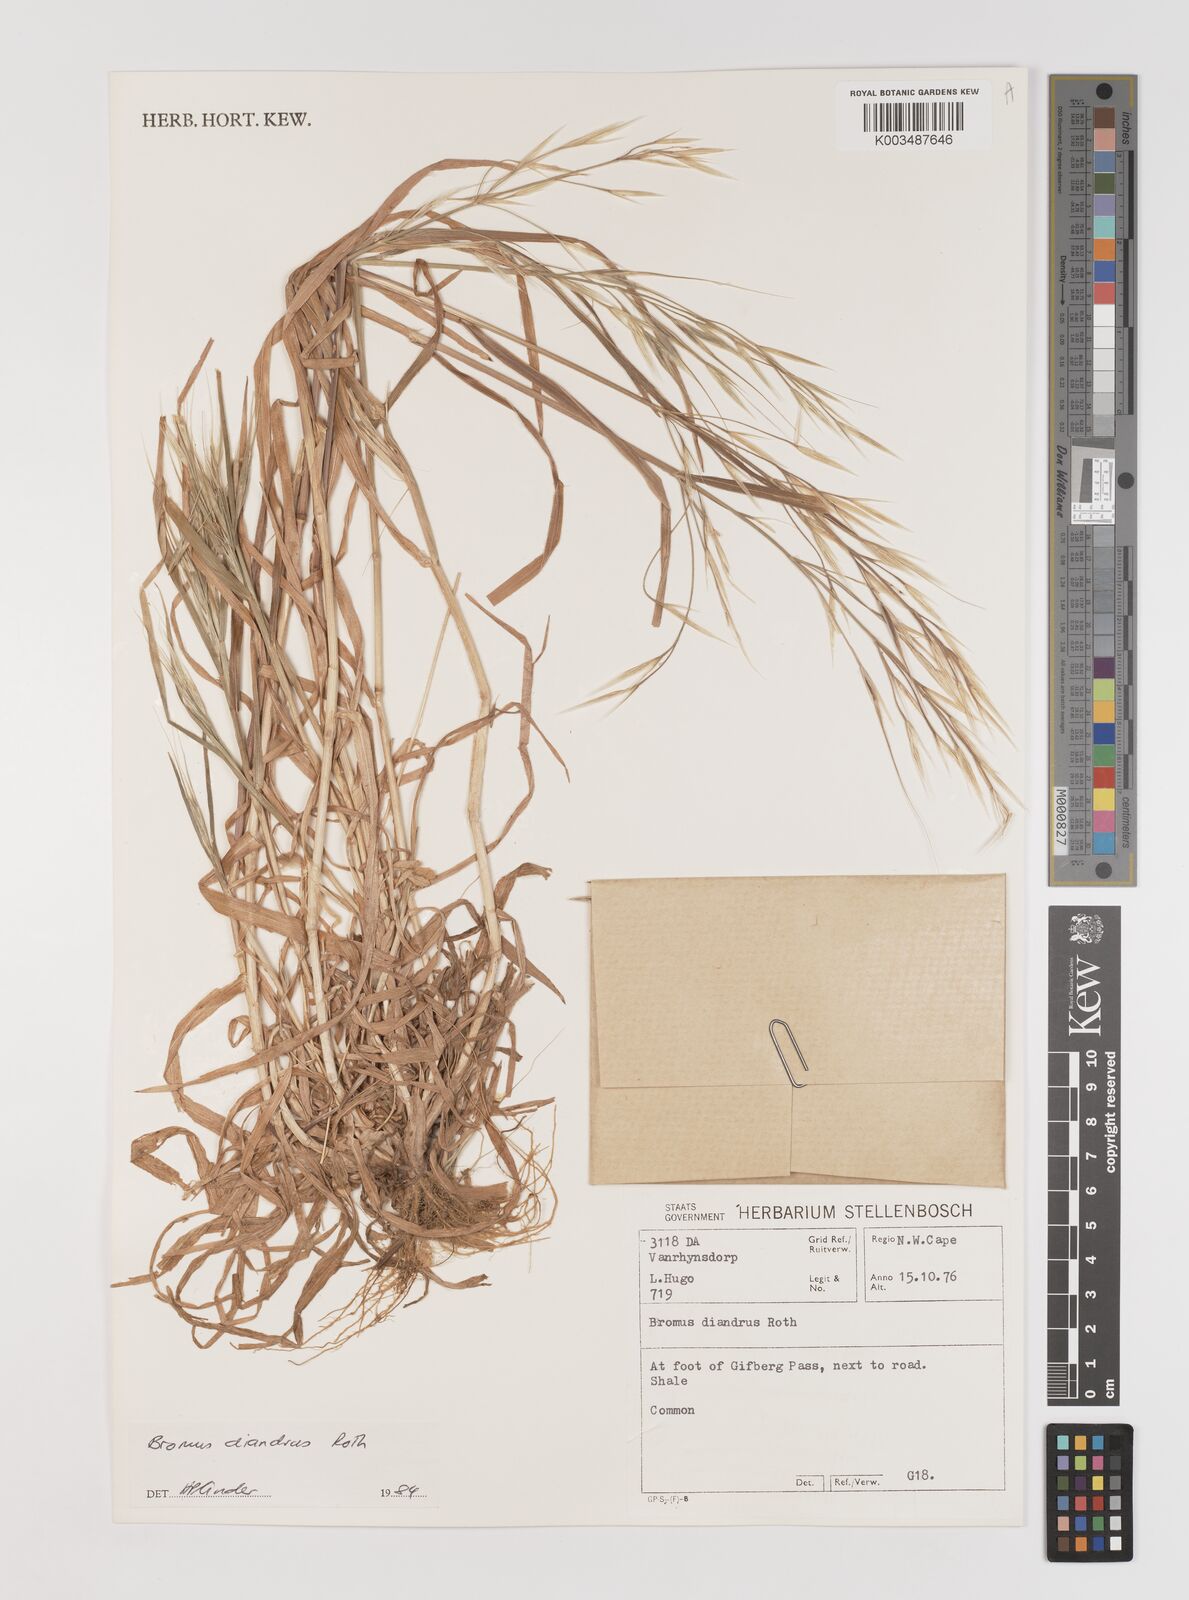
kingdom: Plantae
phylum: Tracheophyta
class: Liliopsida
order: Poales
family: Poaceae
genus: Bromus
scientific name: Bromus diandrus
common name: Ripgut brome
